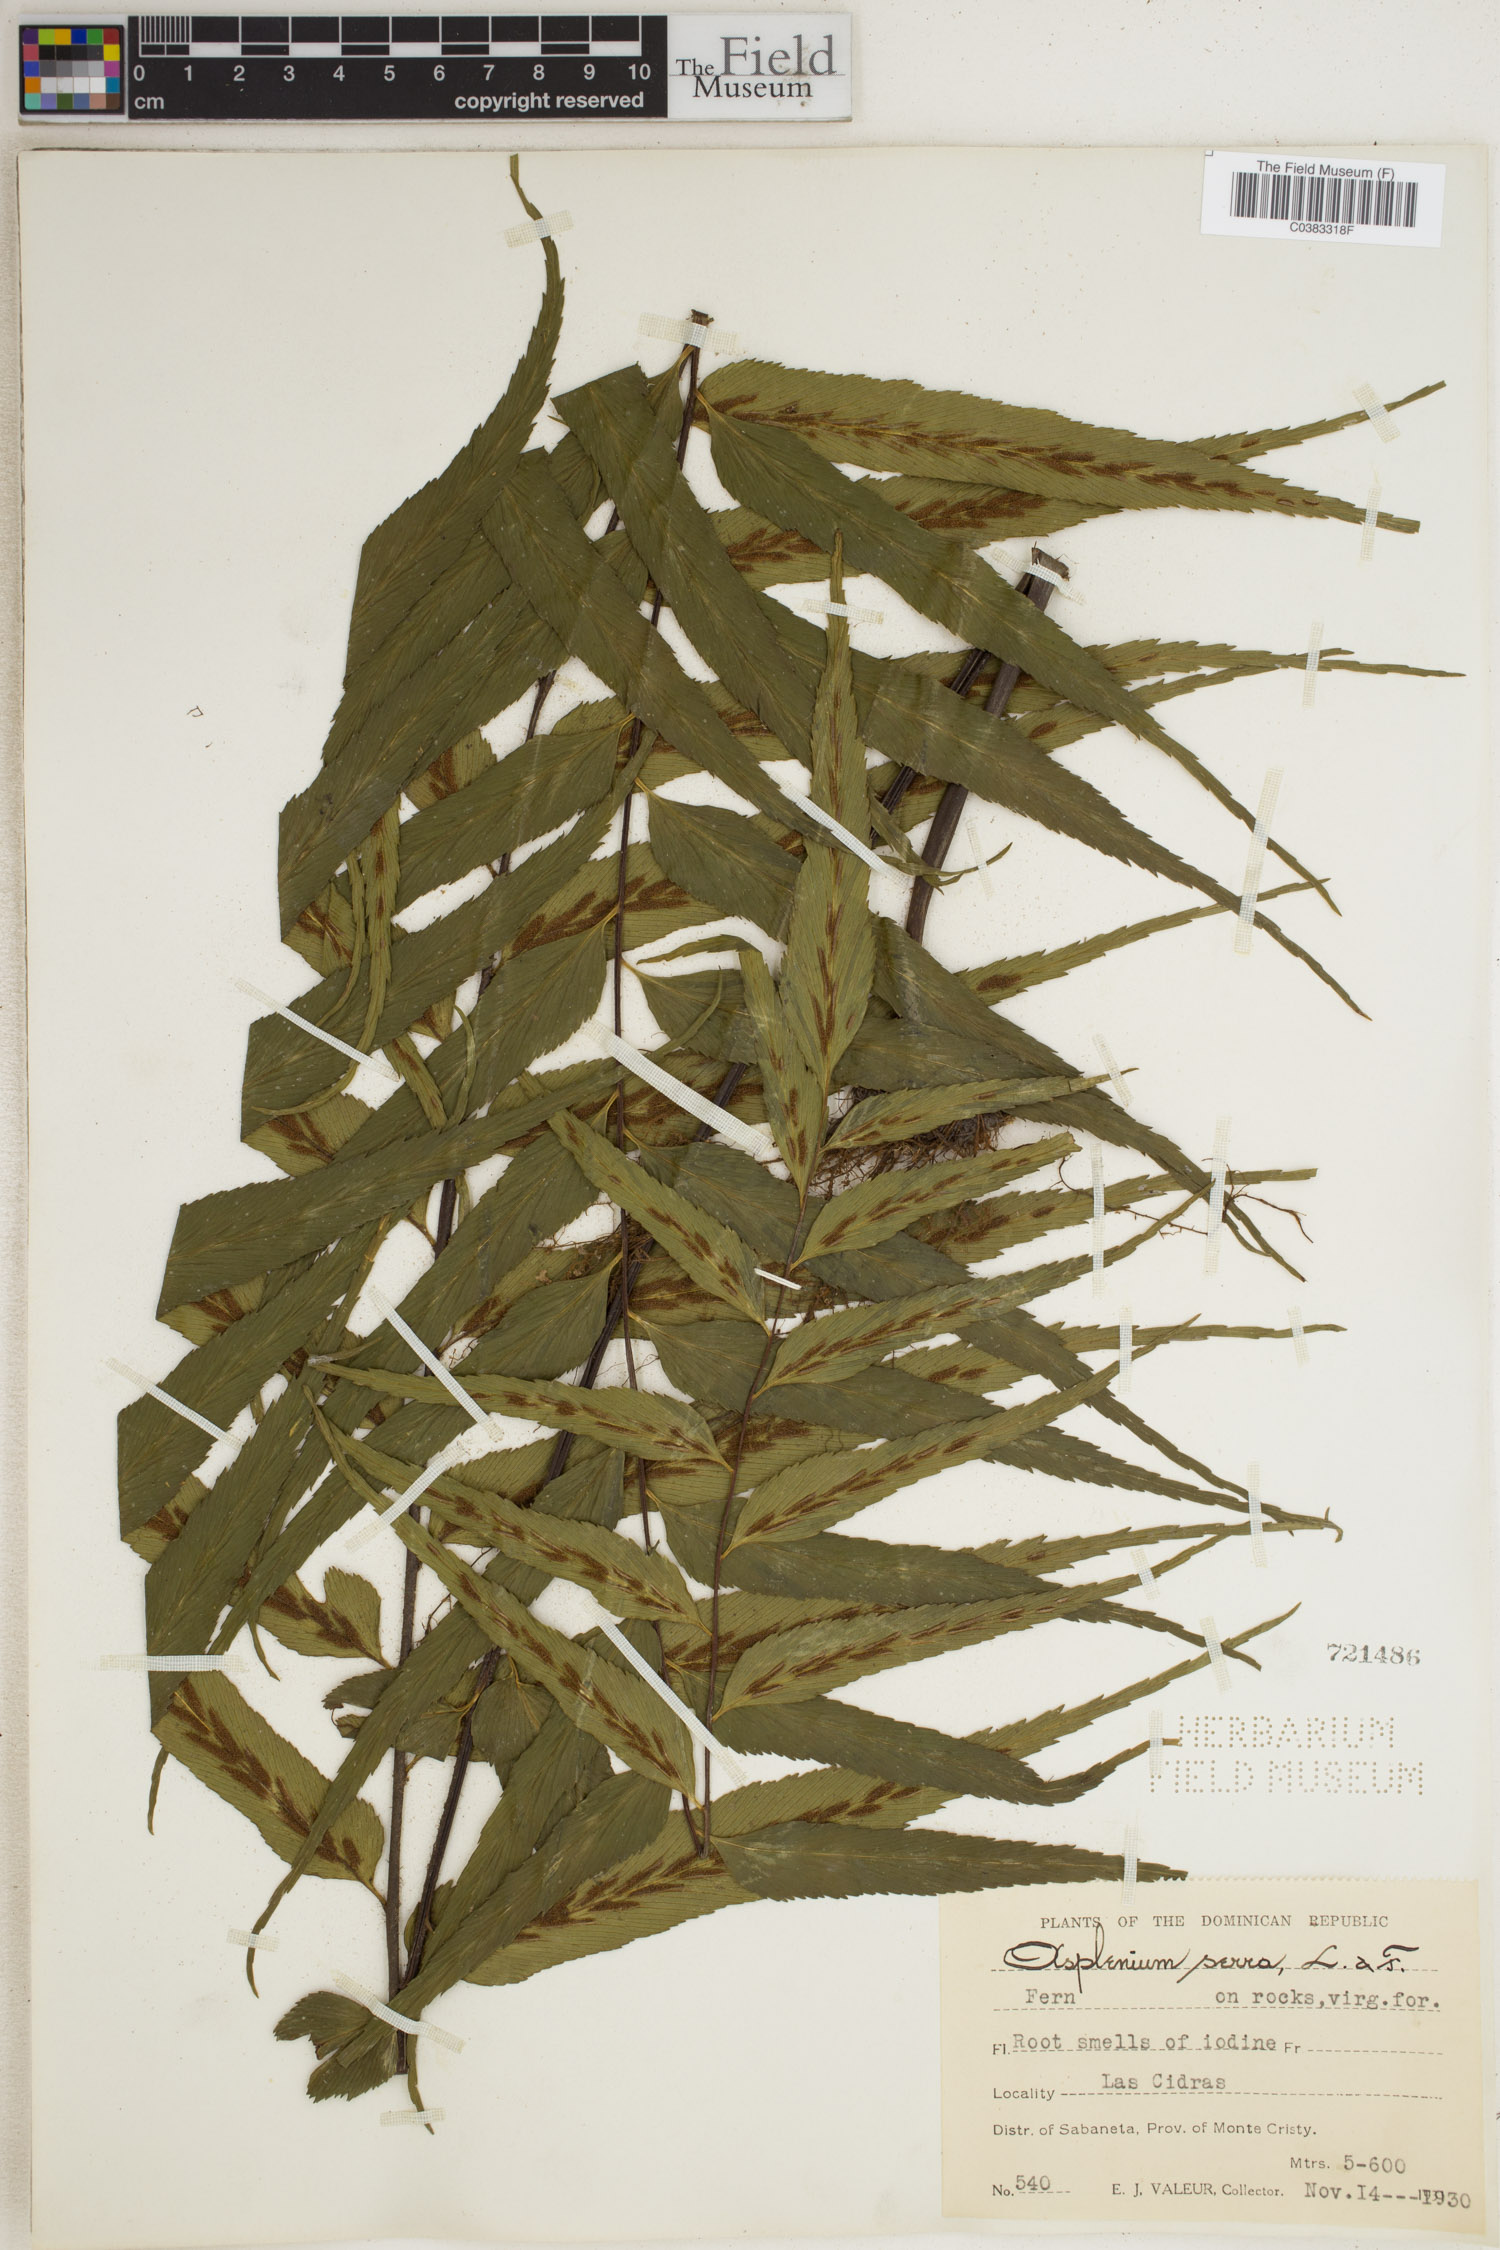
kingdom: Plantae
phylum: Tracheophyta
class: Polypodiopsida
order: Polypodiales
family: Aspleniaceae
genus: Asplenium
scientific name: Asplenium serra
